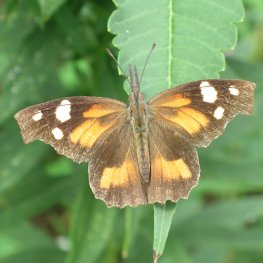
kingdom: Animalia
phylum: Arthropoda
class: Insecta
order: Lepidoptera
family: Nymphalidae
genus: Libytheana
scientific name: Libytheana carinenta
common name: American Snout
